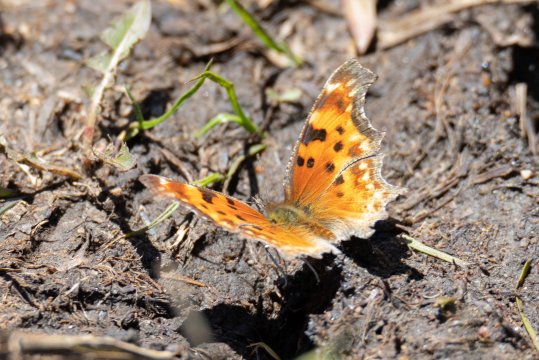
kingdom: Animalia
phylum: Arthropoda
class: Insecta
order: Lepidoptera
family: Nymphalidae
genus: Polygonia
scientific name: Polygonia gracilis
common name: Hoary Comma
